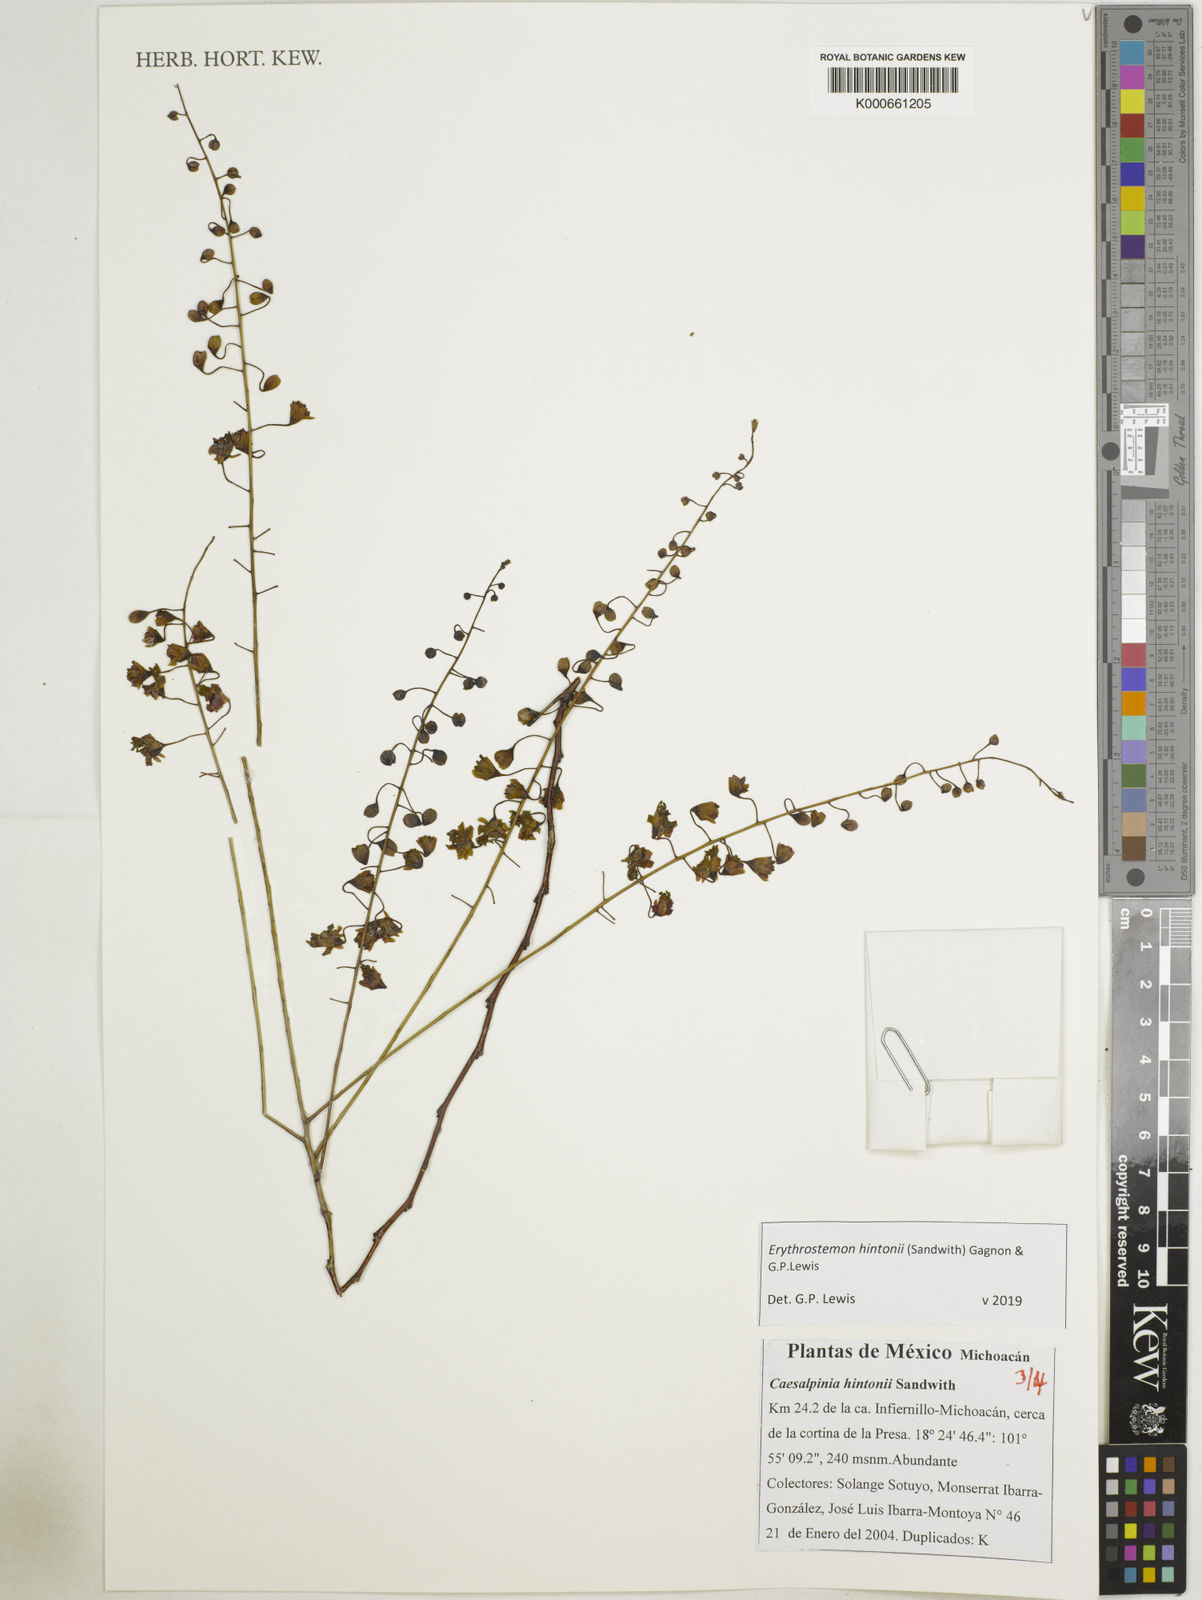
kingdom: Plantae
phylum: Tracheophyta
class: Magnoliopsida
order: Fabales
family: Fabaceae
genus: Erythrostemon
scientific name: Erythrostemon hintonii
